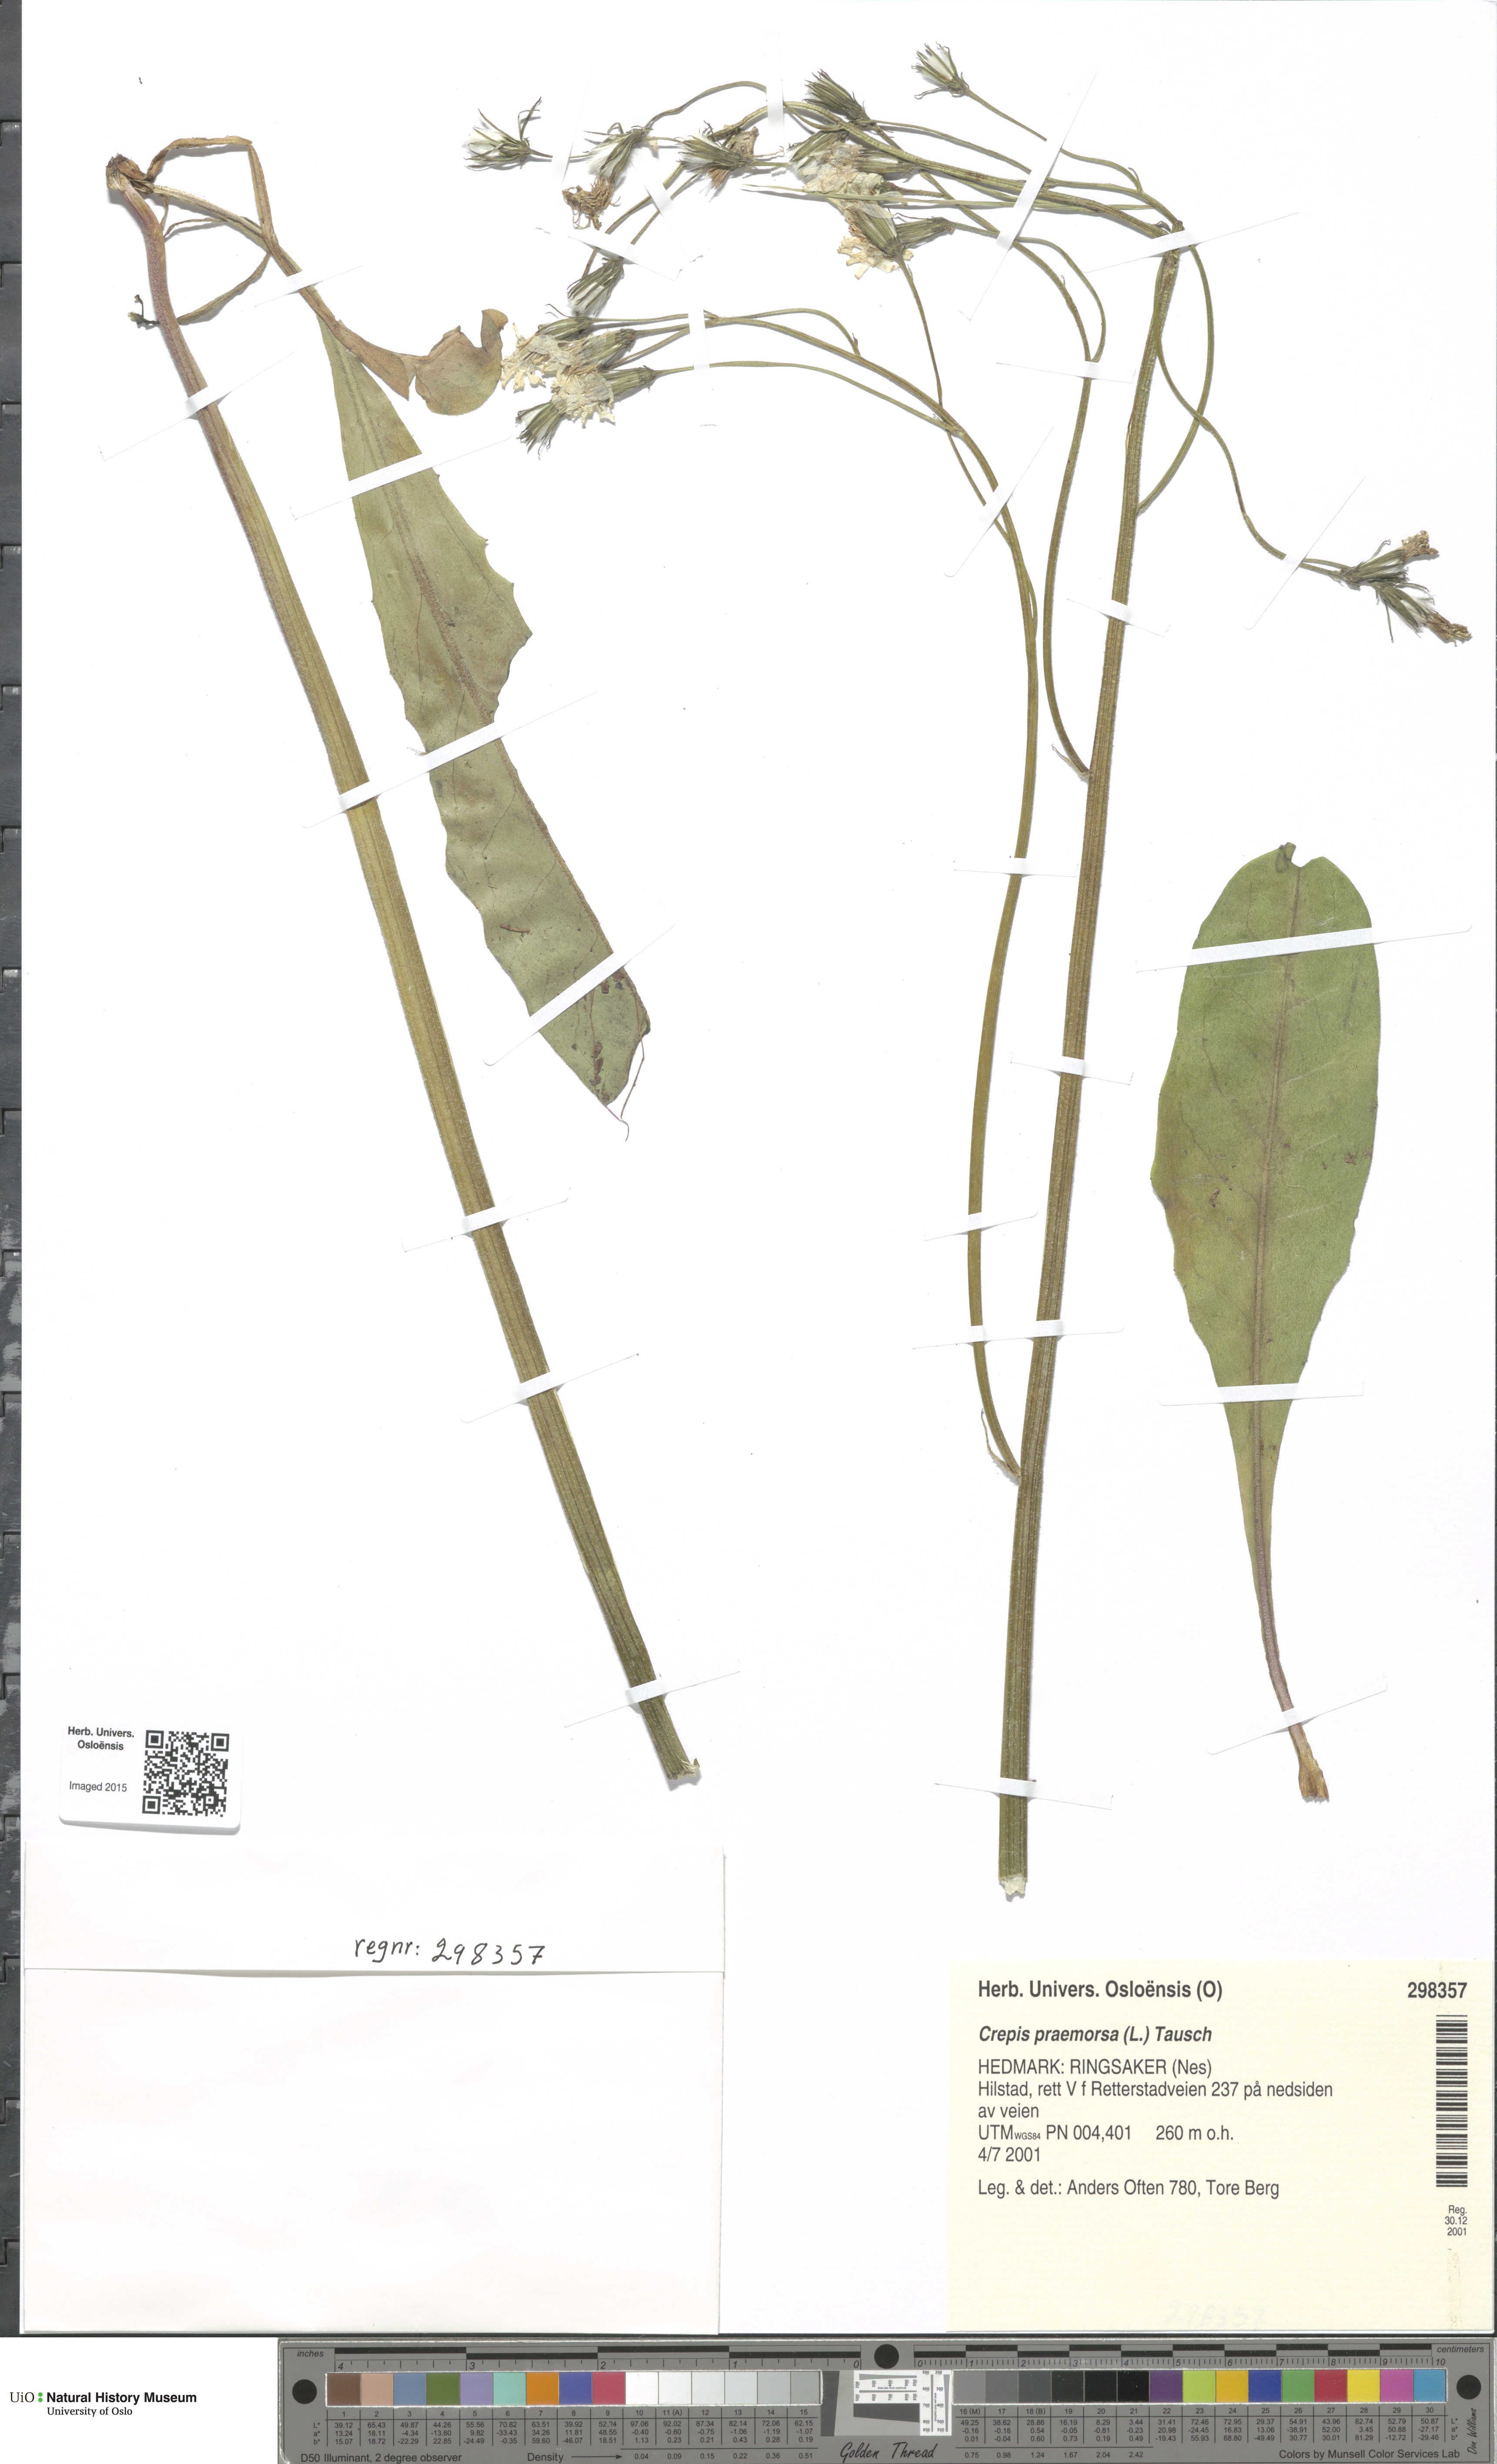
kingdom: Plantae
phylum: Tracheophyta
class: Magnoliopsida
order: Asterales
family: Asteraceae
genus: Crepis
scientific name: Crepis praemorsa
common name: Leafless hawk's-beard
